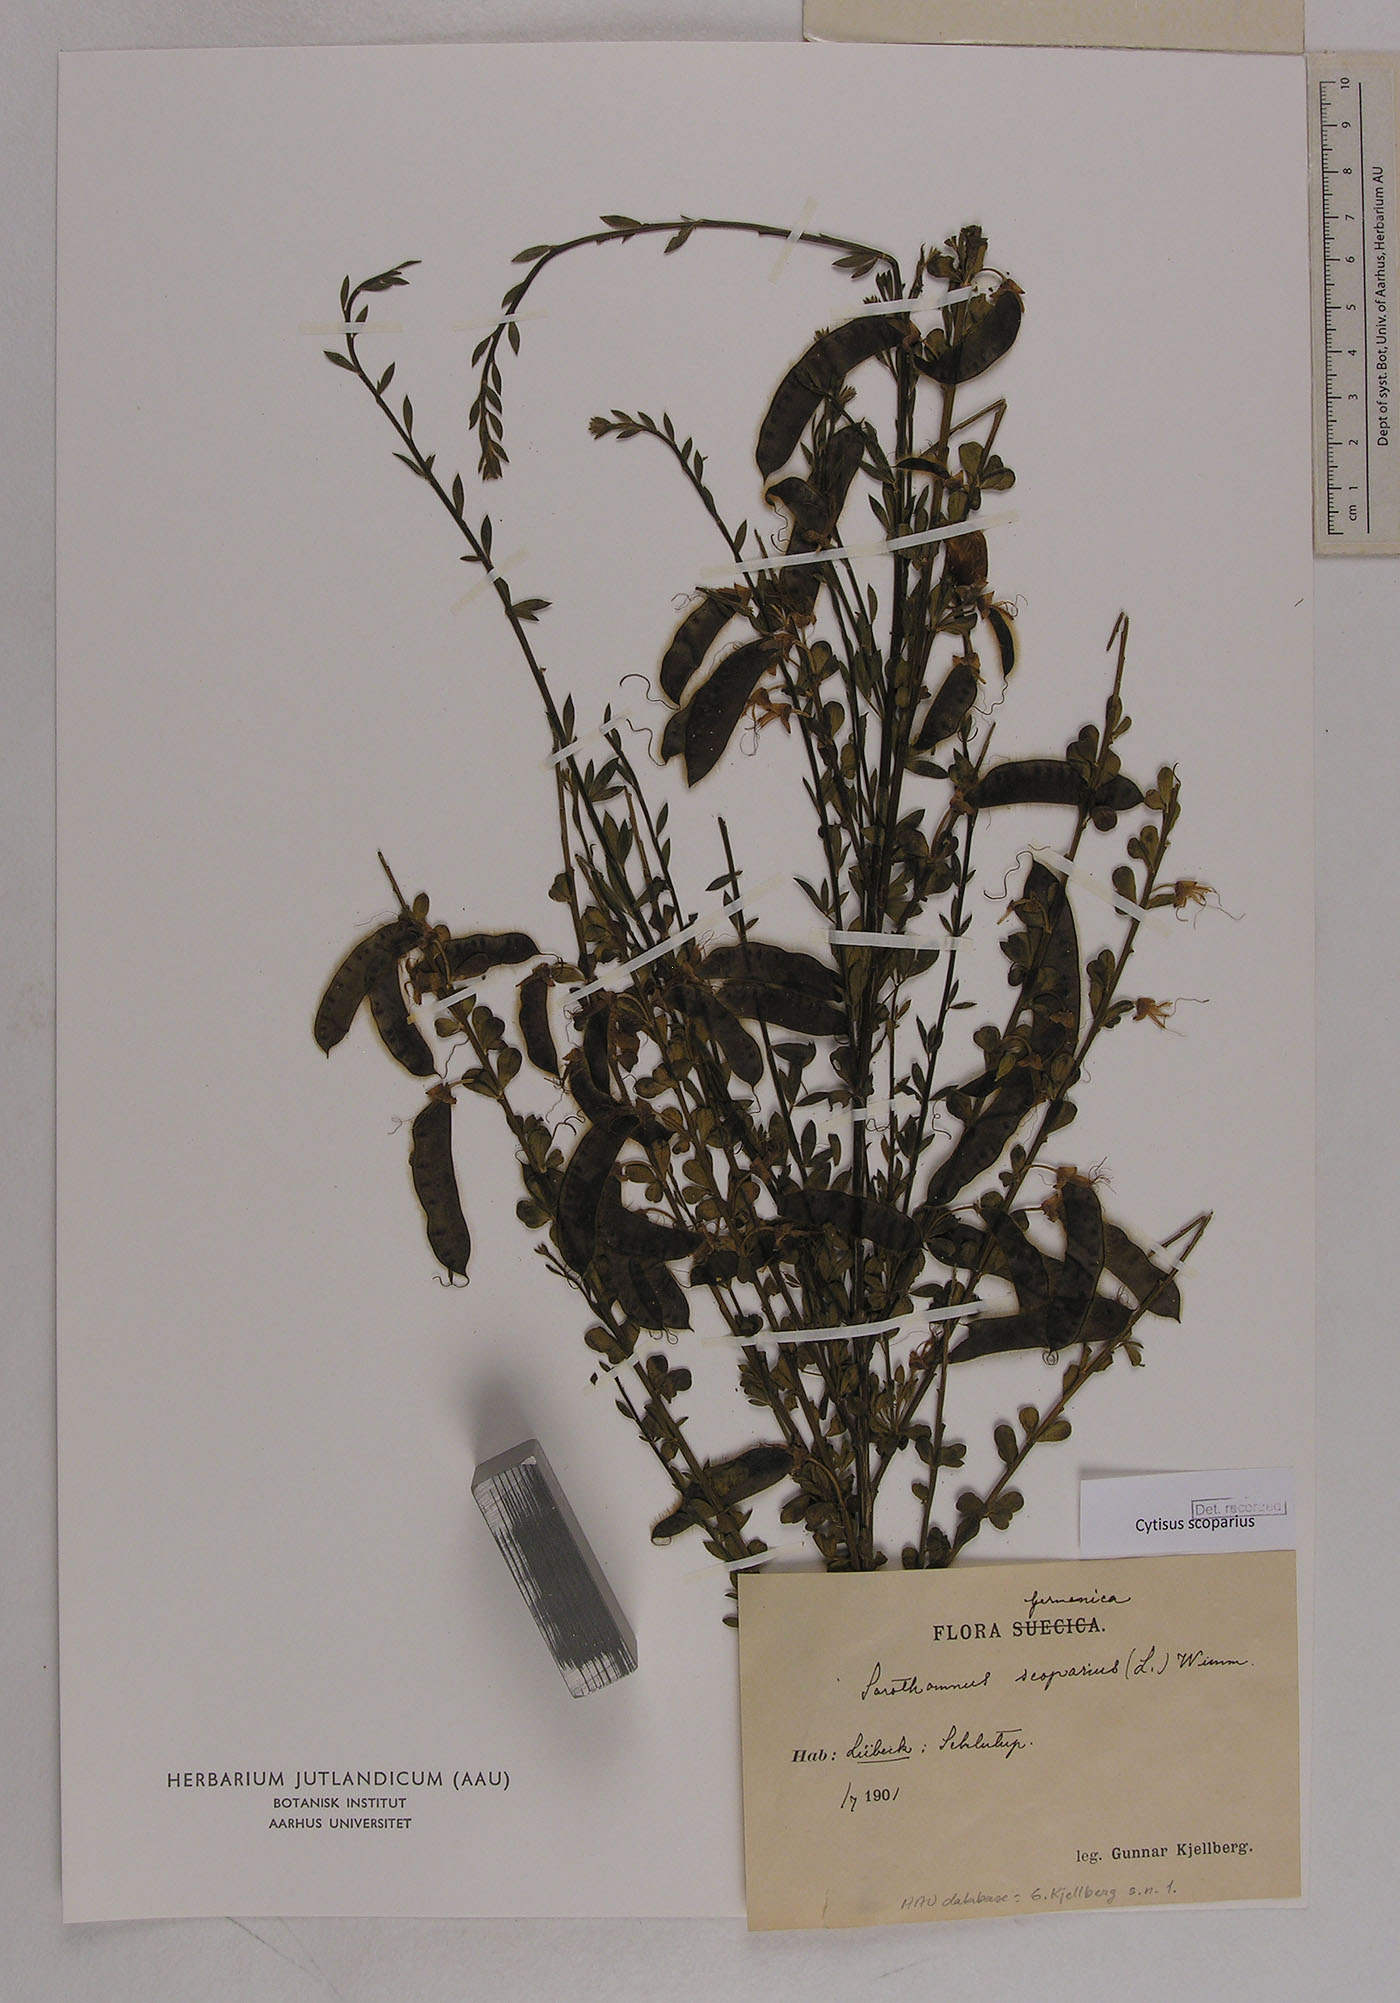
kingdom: Plantae
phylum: Tracheophyta
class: Magnoliopsida
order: Fabales
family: Fabaceae
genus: Cytisus
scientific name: Cytisus scoparius
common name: Scotch broom
